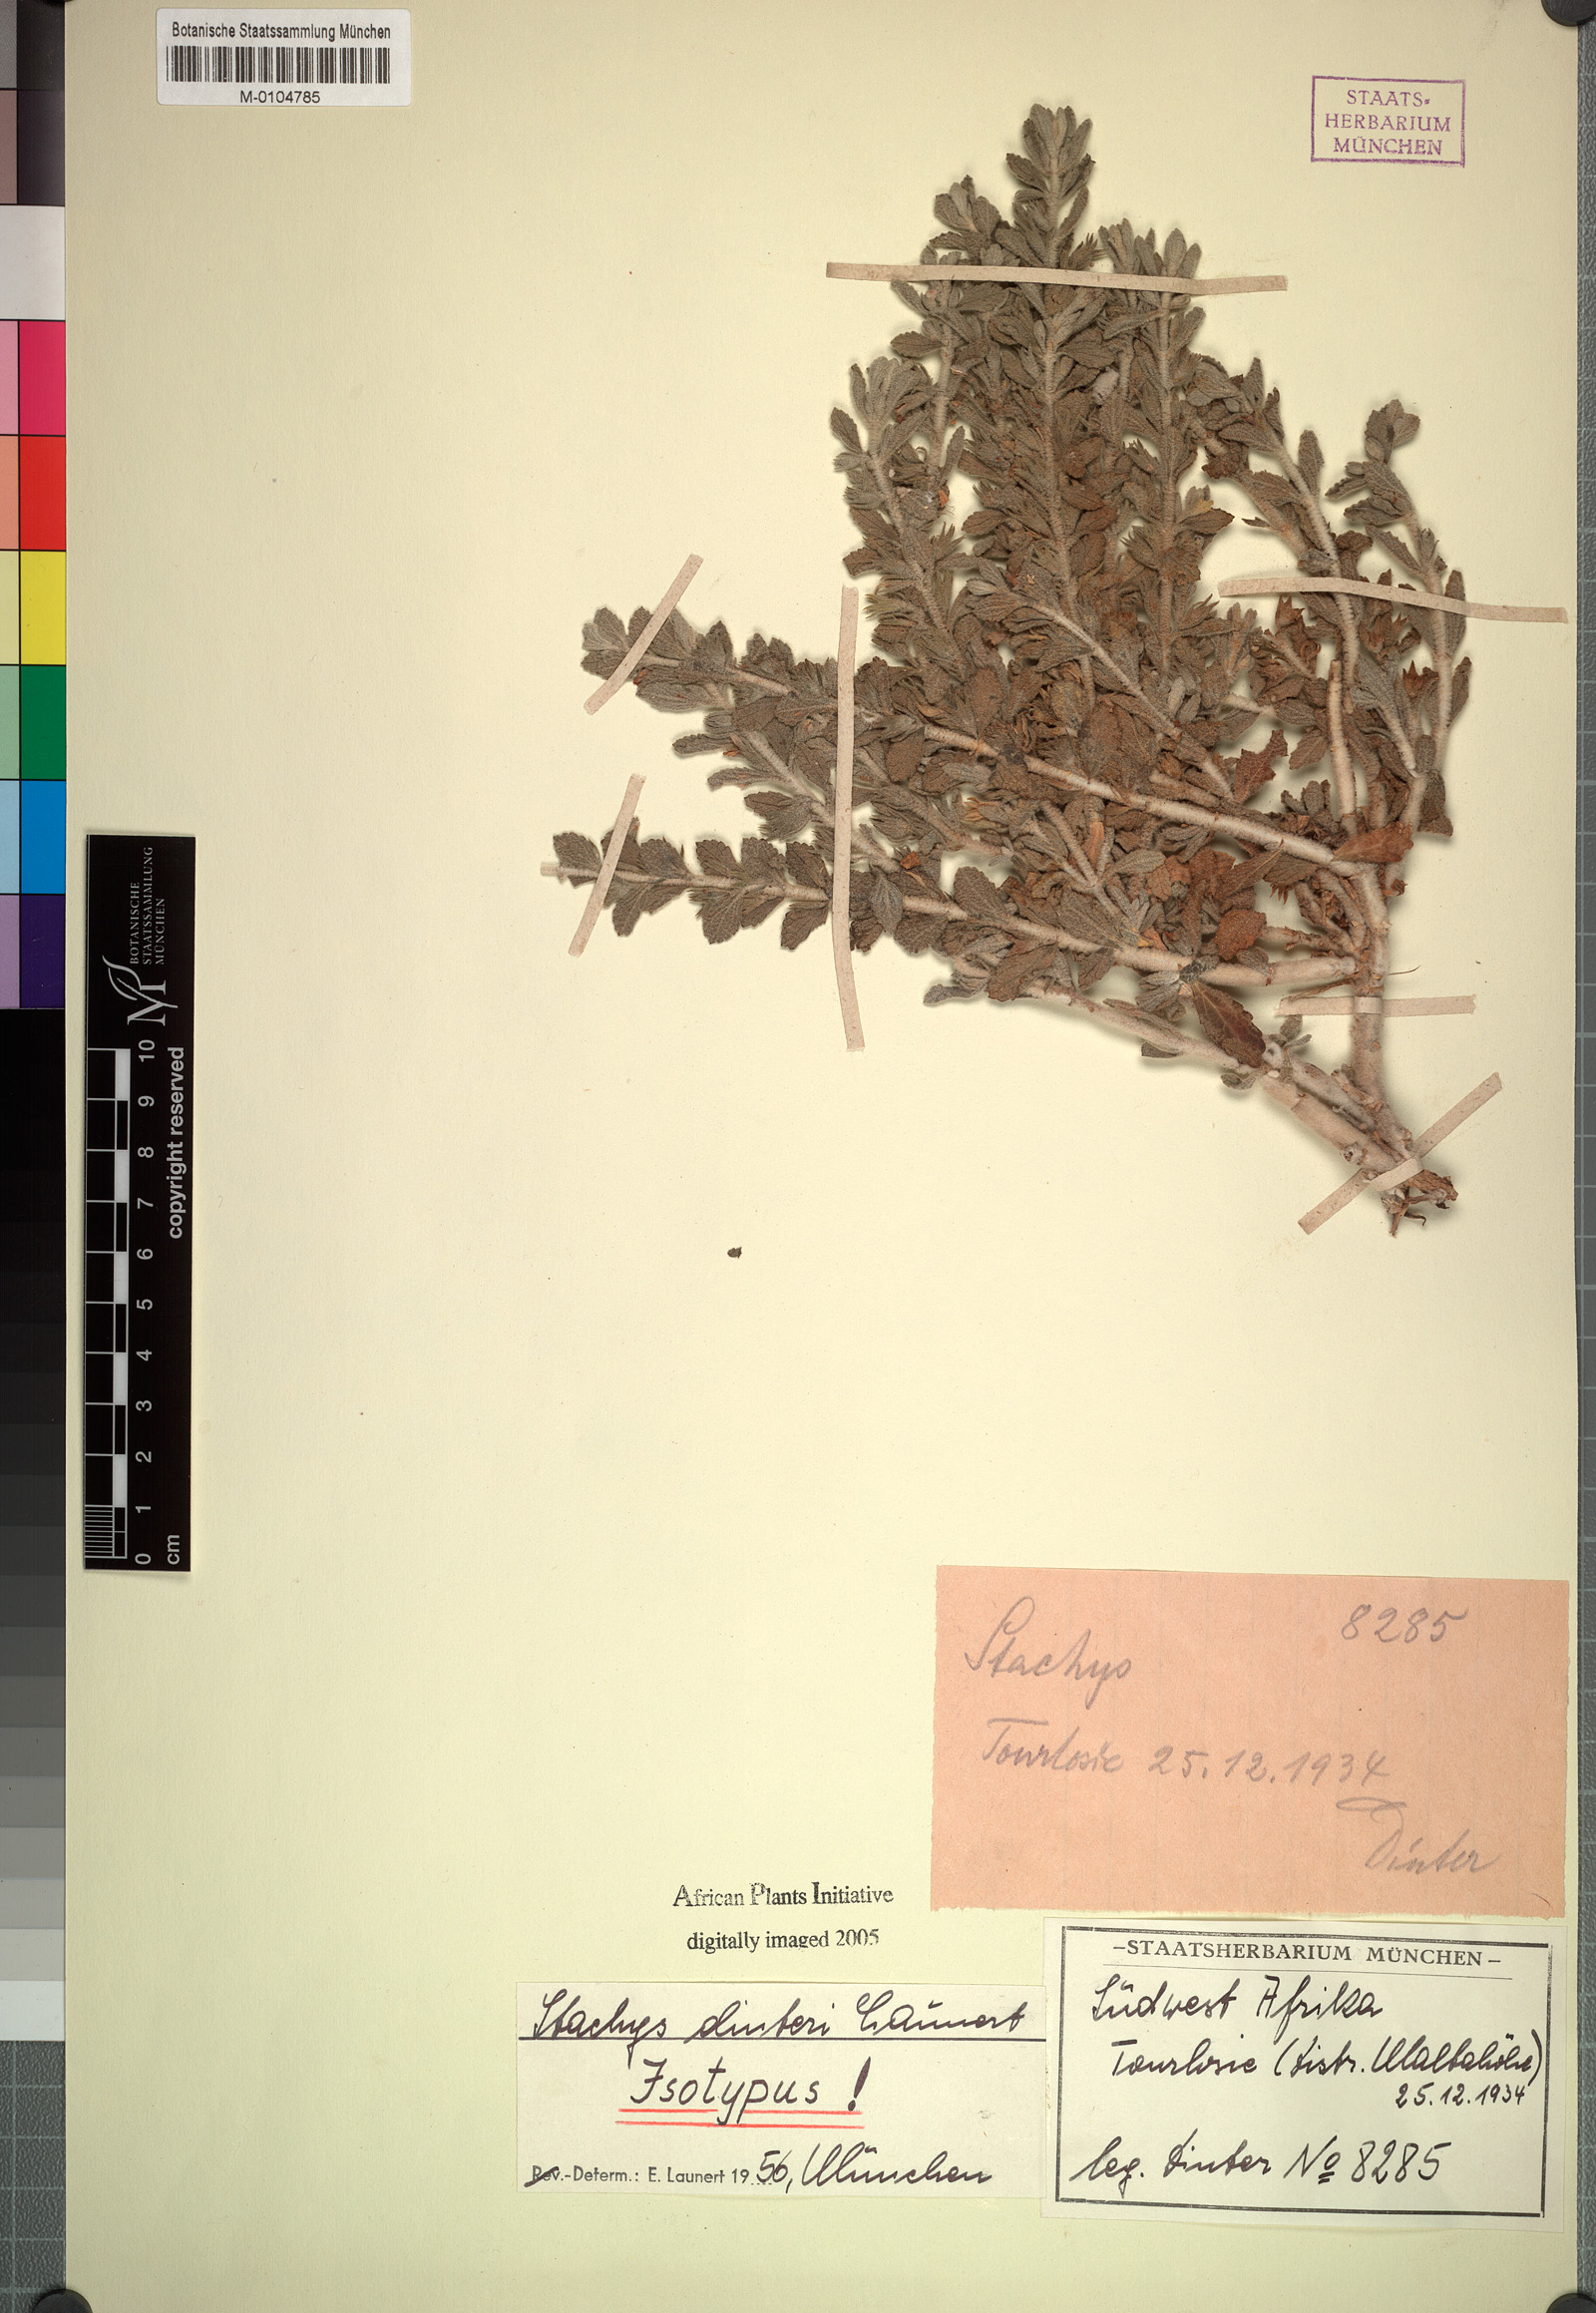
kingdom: Plantae
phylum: Tracheophyta
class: Magnoliopsida
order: Lamiales
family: Lamiaceae
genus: Stachys
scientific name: Stachys dinteri
